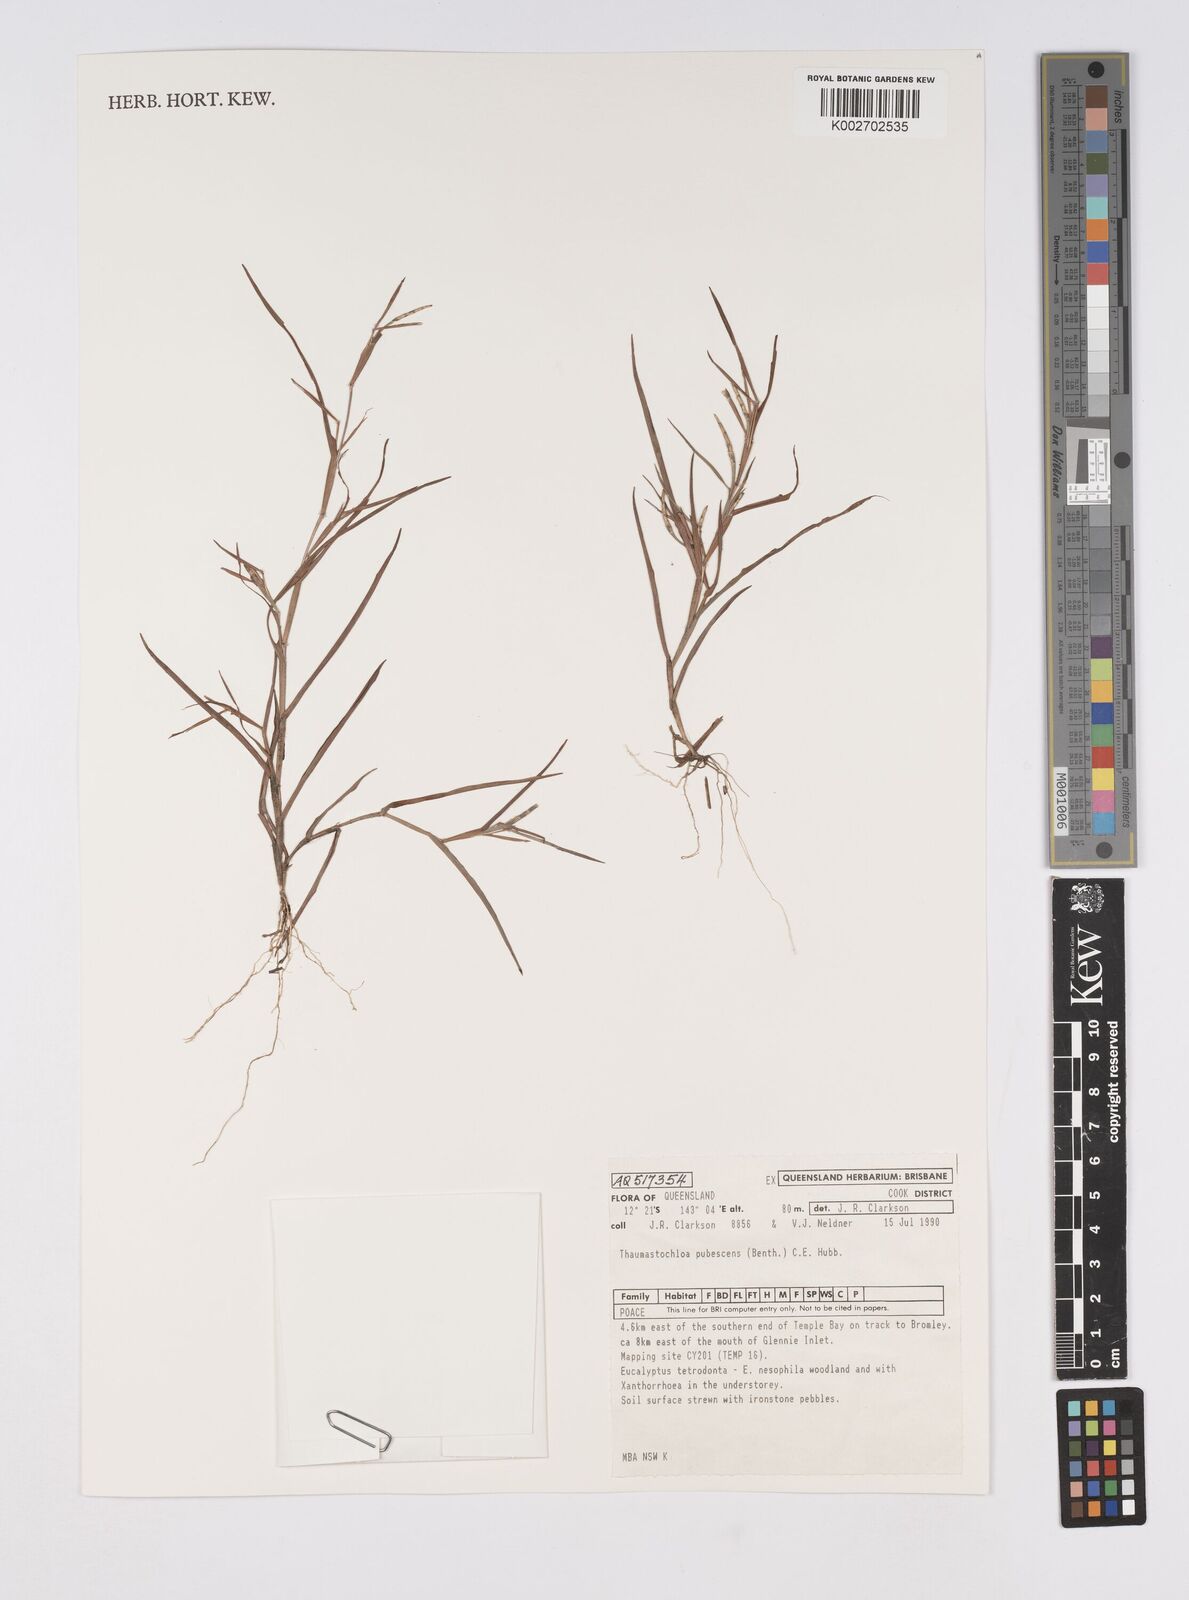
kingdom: Plantae
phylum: Tracheophyta
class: Liliopsida
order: Poales
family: Poaceae
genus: Thaumastochloa
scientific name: Thaumastochloa pubescens
